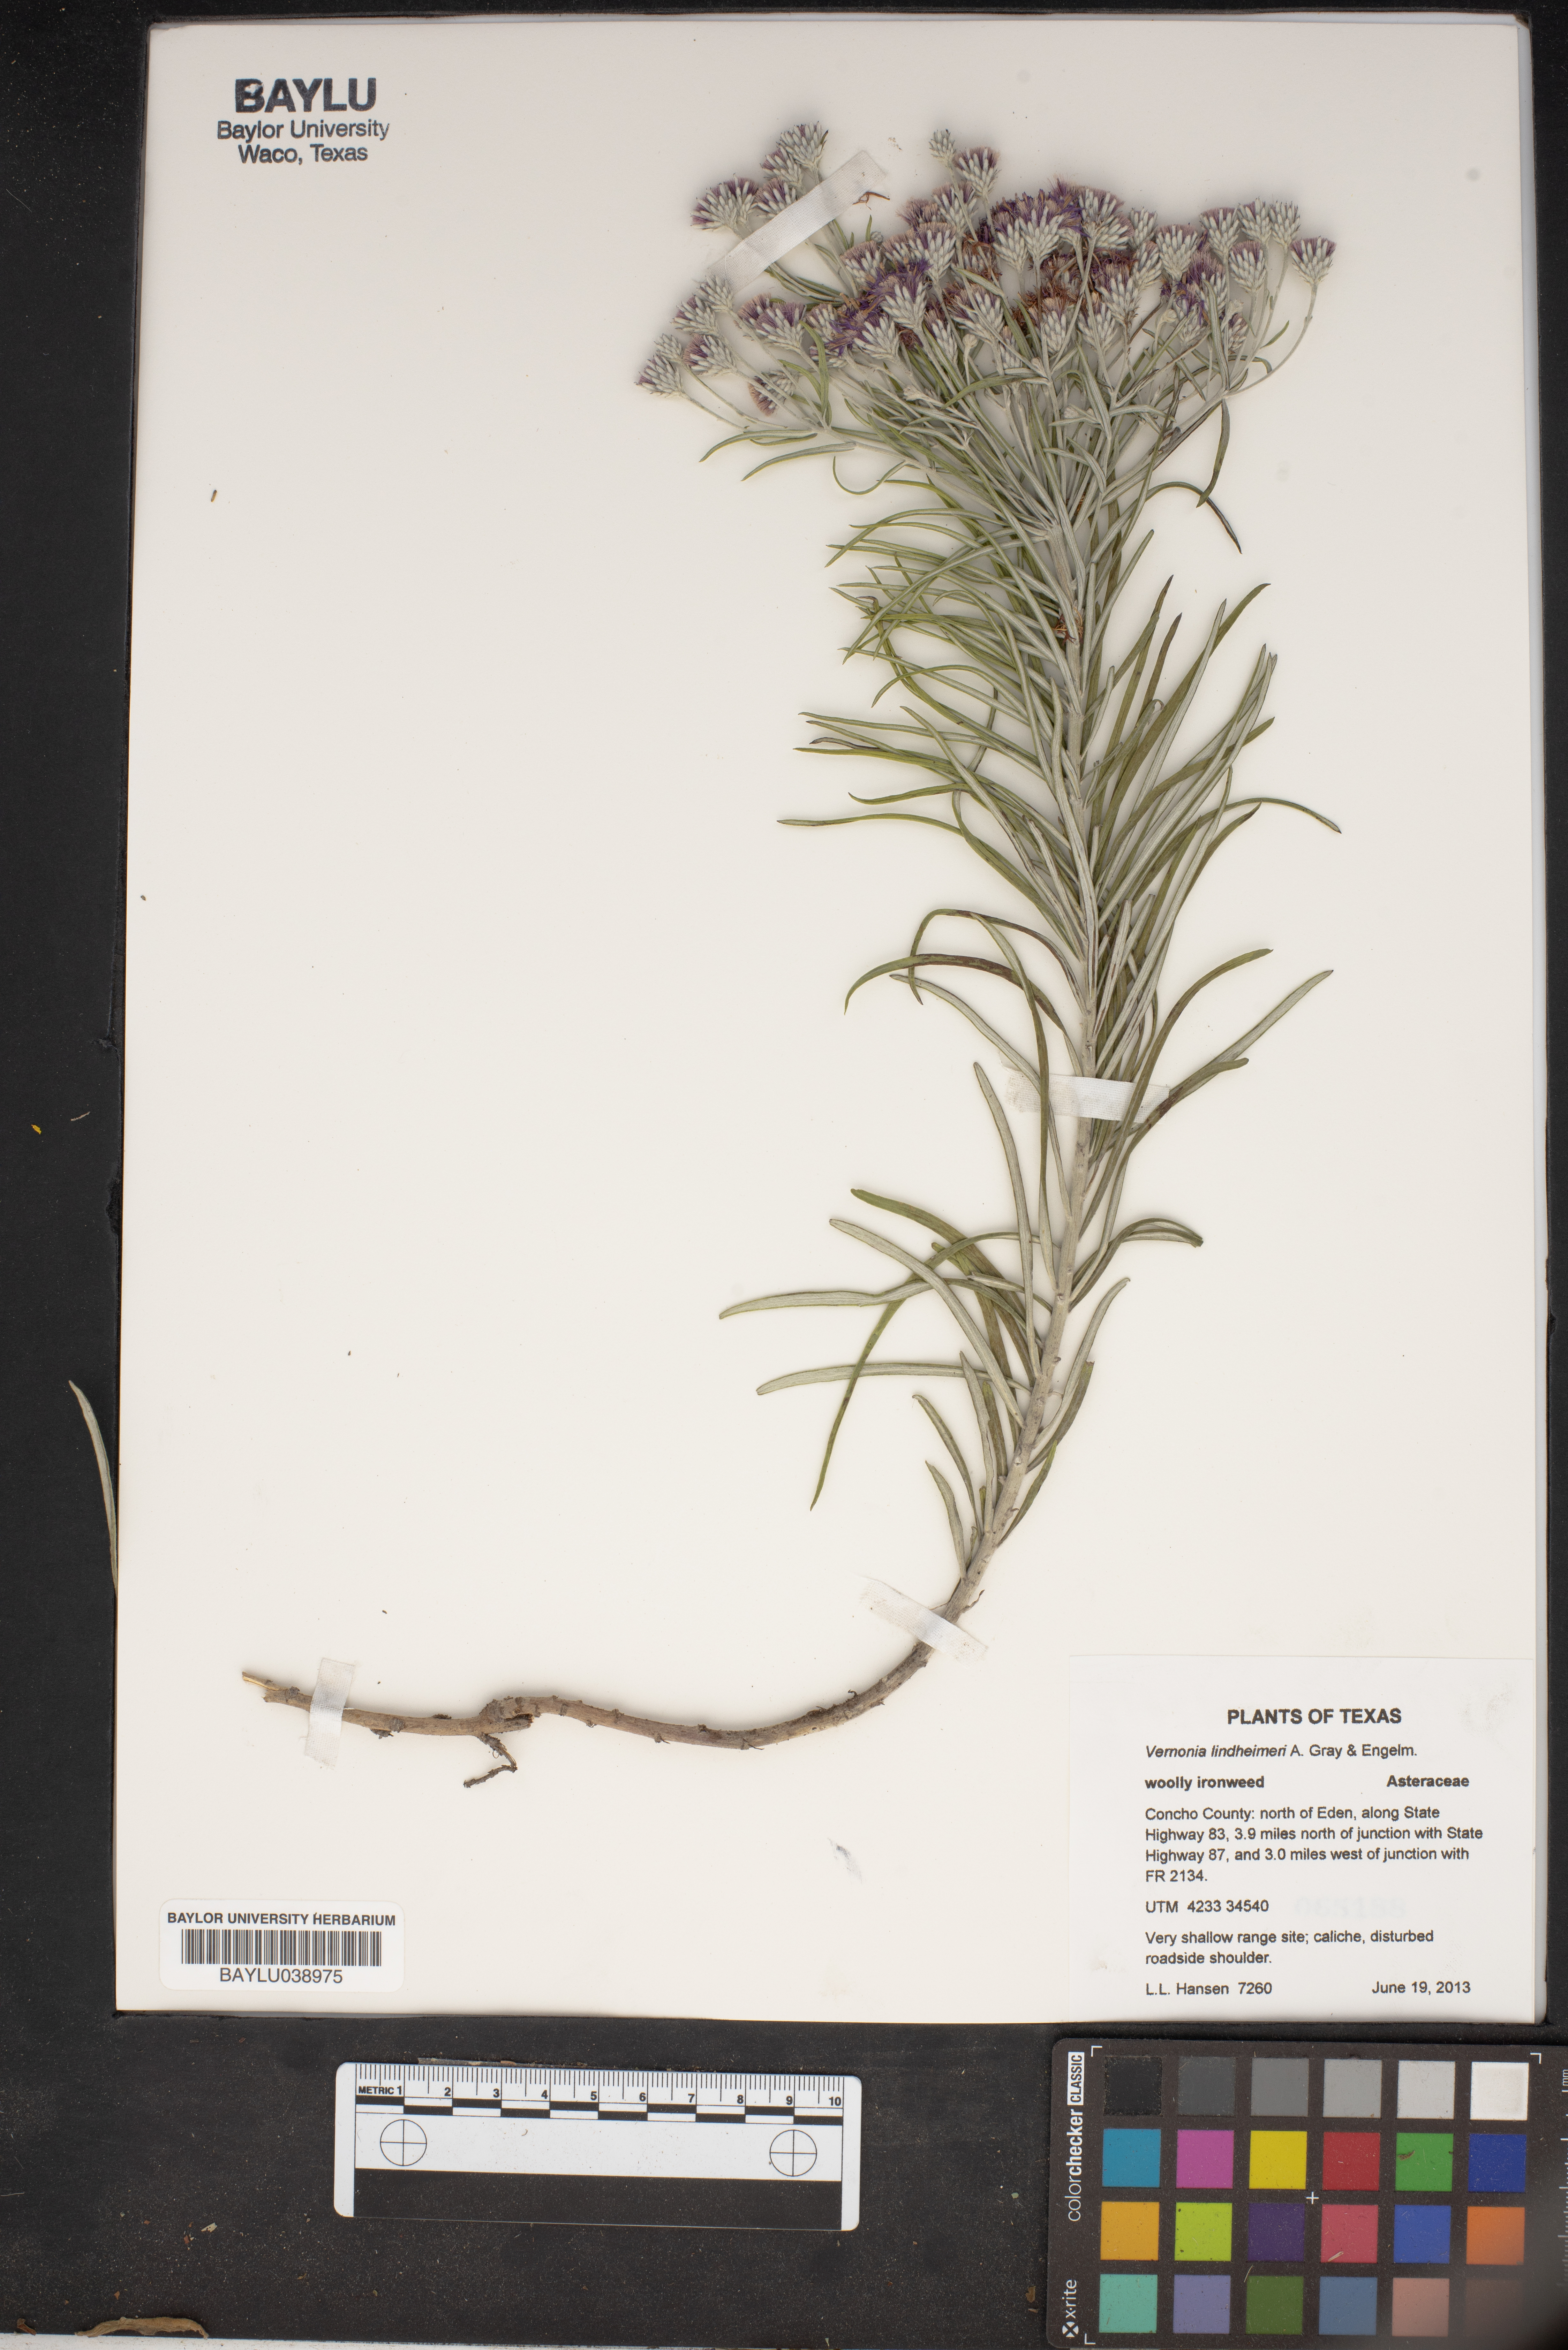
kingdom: Plantae
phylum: Tracheophyta
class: Magnoliopsida
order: Asterales
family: Asteraceae
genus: Vernonia
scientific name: Vernonia lindheimeri
